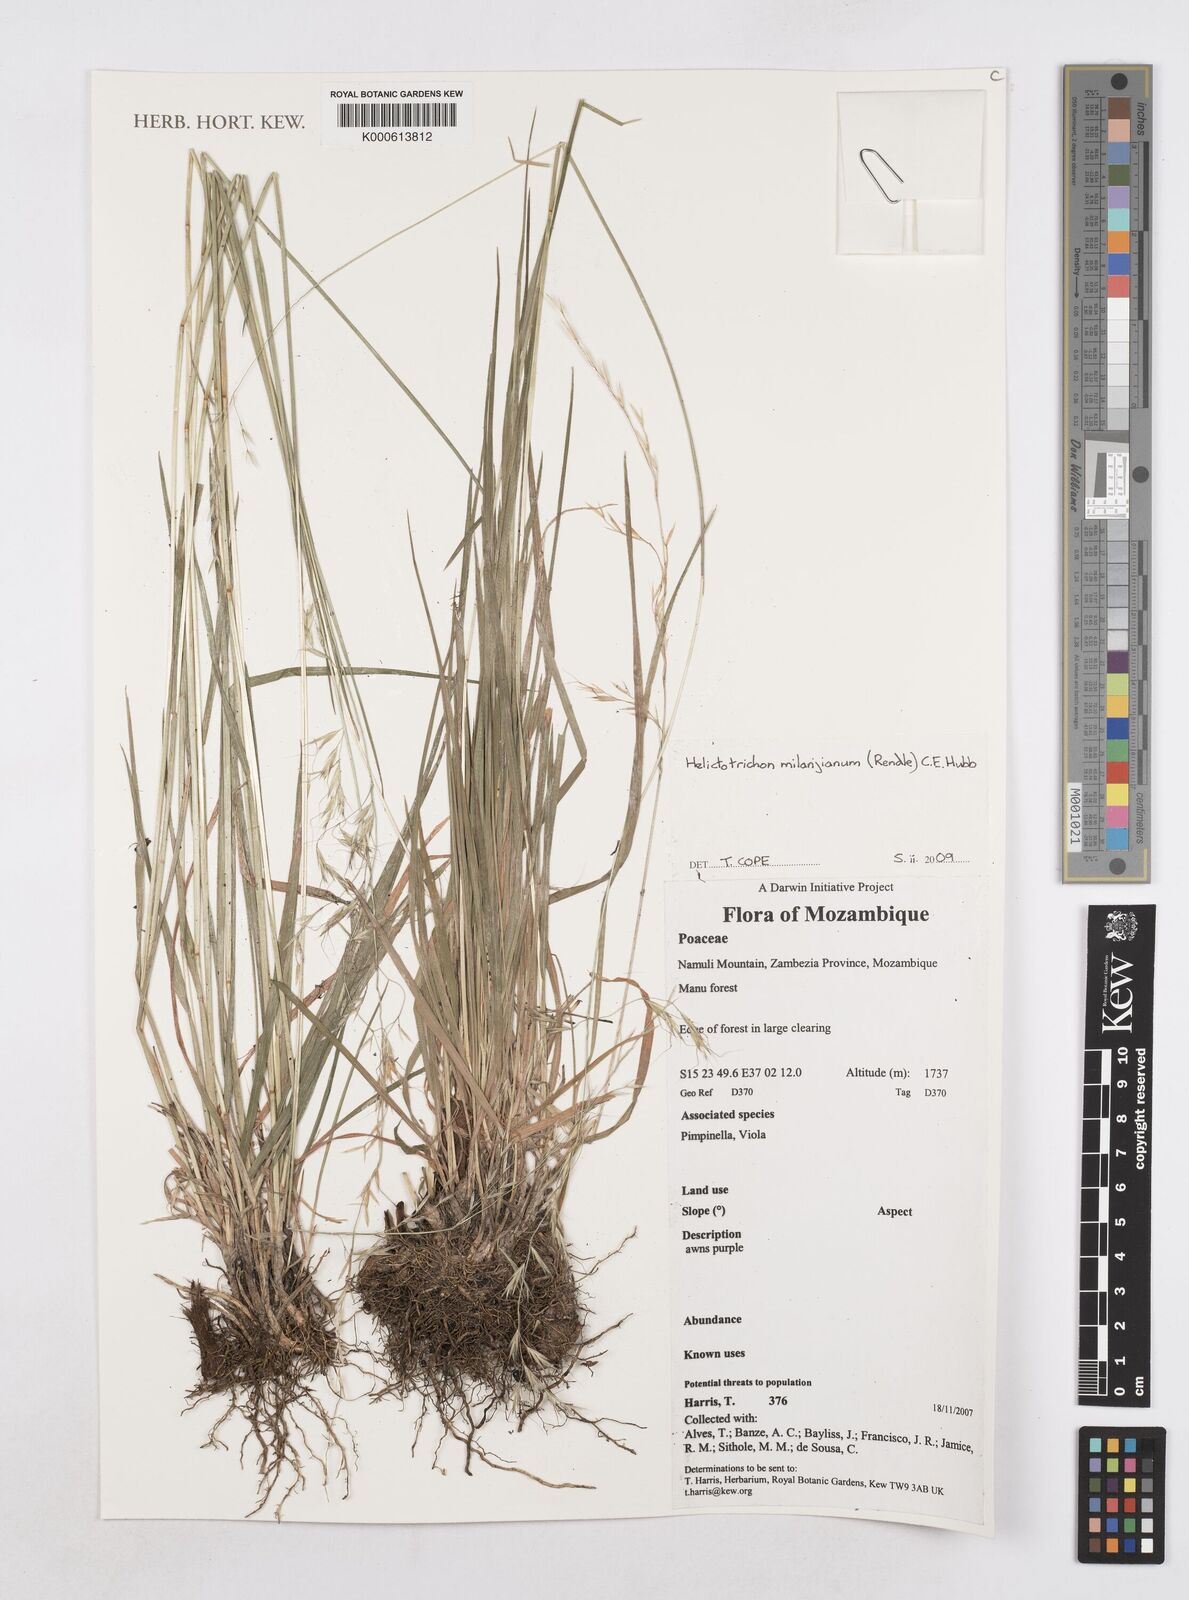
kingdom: Plantae
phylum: Tracheophyta
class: Liliopsida
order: Poales
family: Poaceae
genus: Trisetopsis
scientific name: Trisetopsis milanjiana
